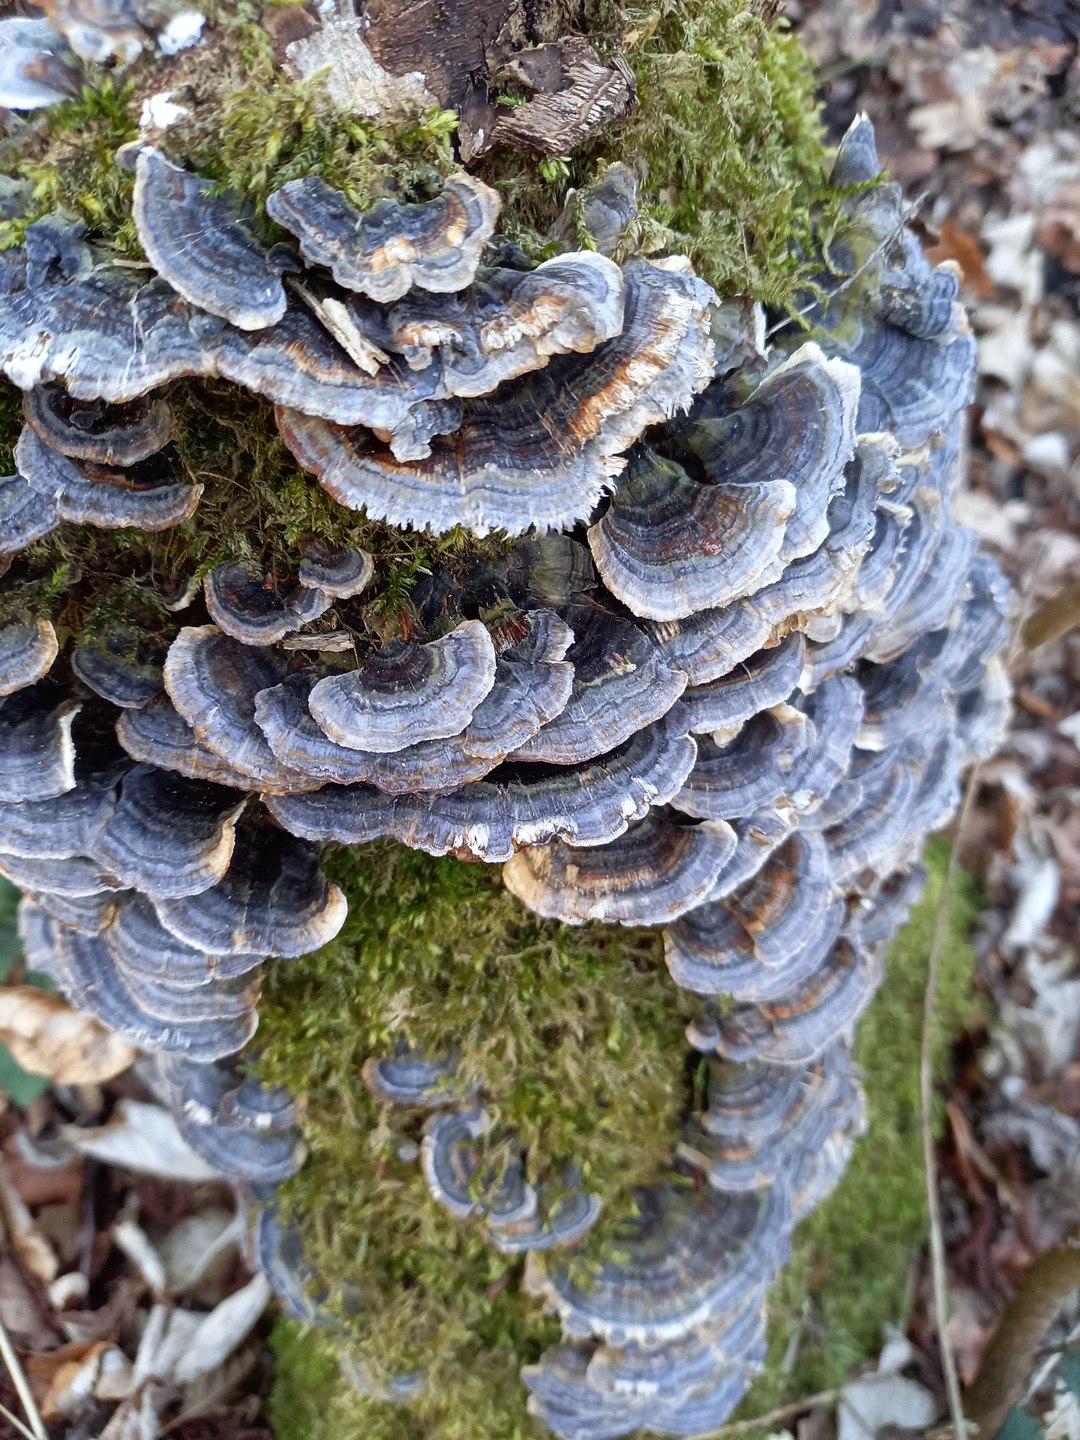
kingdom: Fungi
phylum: Basidiomycota
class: Agaricomycetes
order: Polyporales
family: Polyporaceae
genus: Trametes
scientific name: Trametes versicolor
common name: broget læderporesvamp
